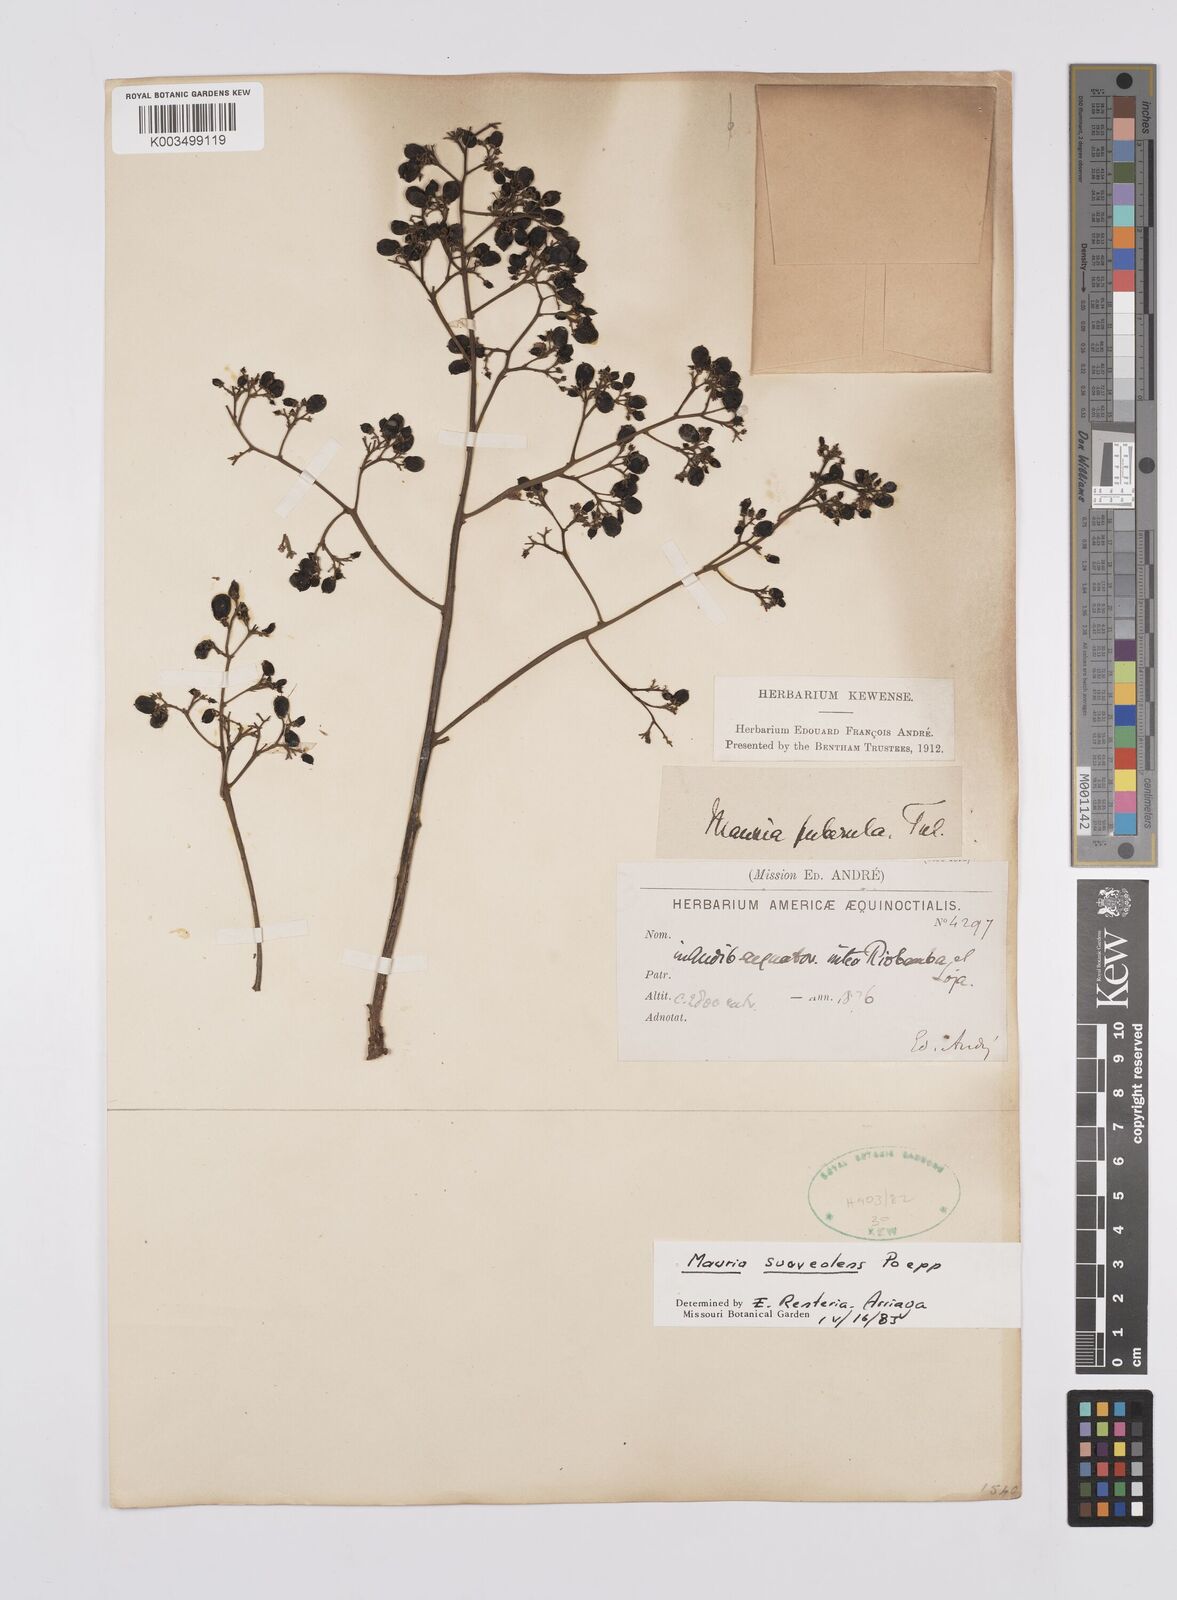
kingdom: Plantae
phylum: Tracheophyta
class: Magnoliopsida
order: Sapindales
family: Anacardiaceae
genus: Mauria
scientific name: Mauria heterophylla
